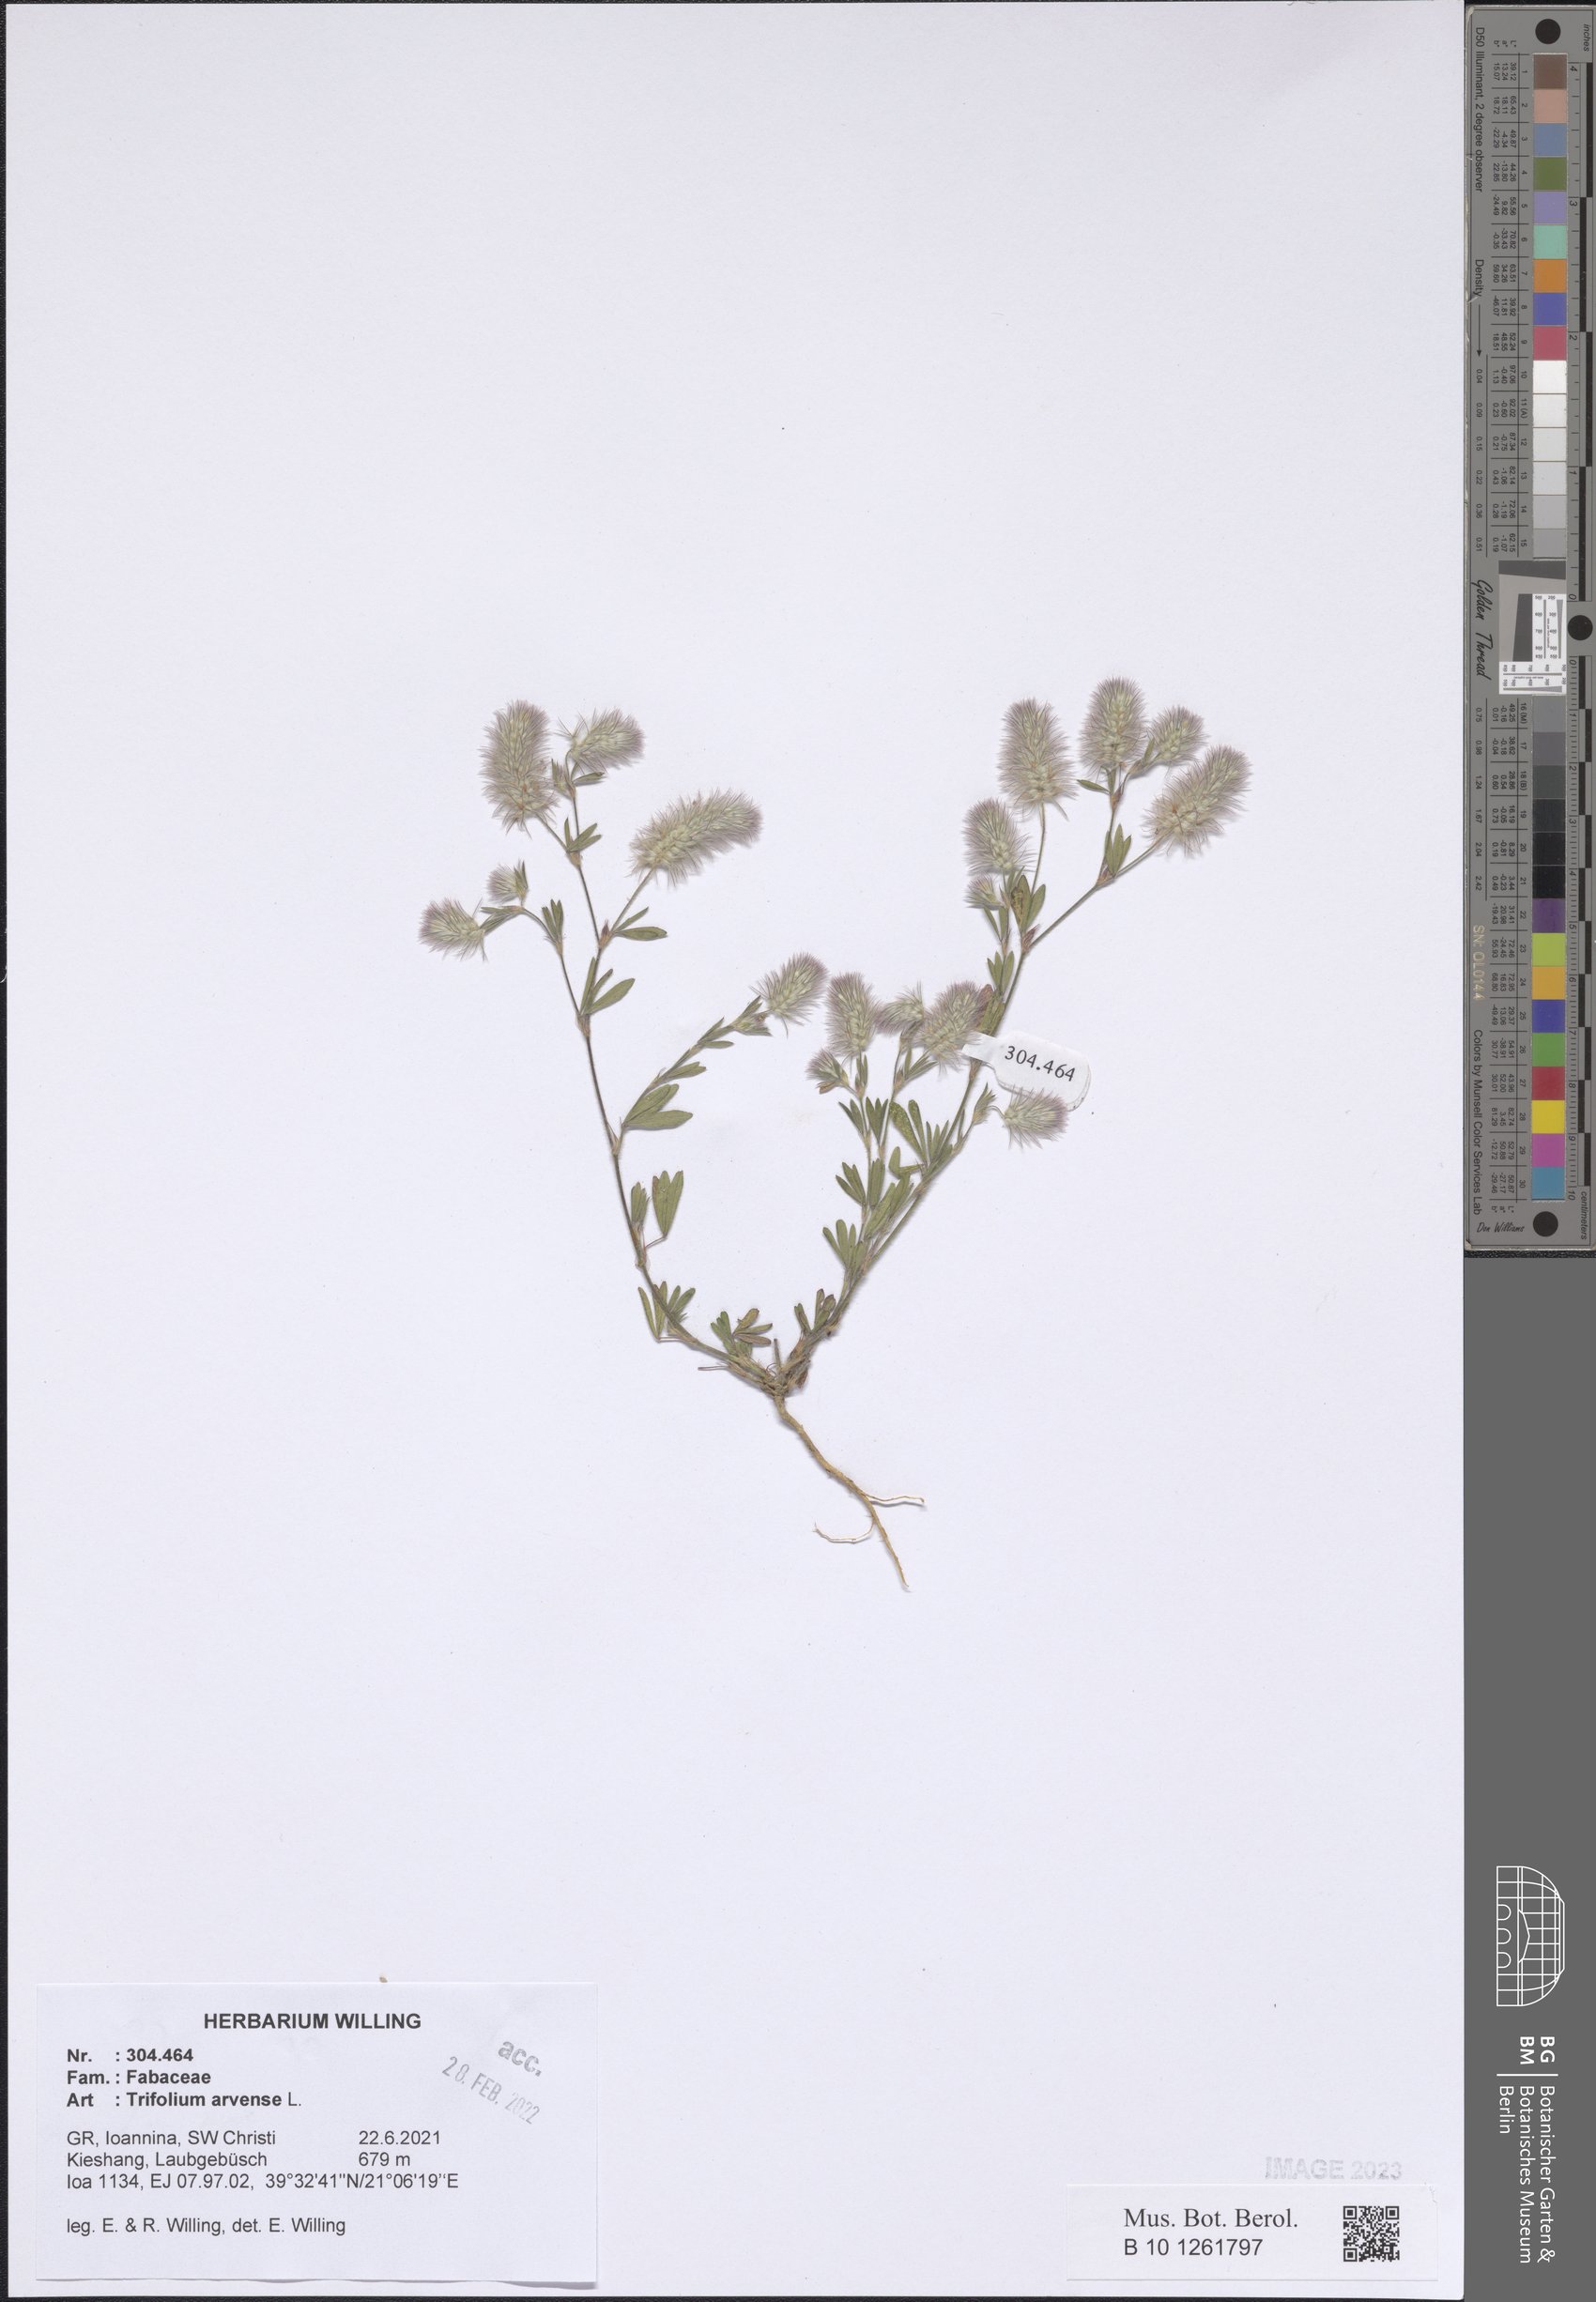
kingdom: Plantae
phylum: Tracheophyta
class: Magnoliopsida
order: Fabales
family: Fabaceae
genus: Trifolium
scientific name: Trifolium arvense
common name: Hare's-foot clover
